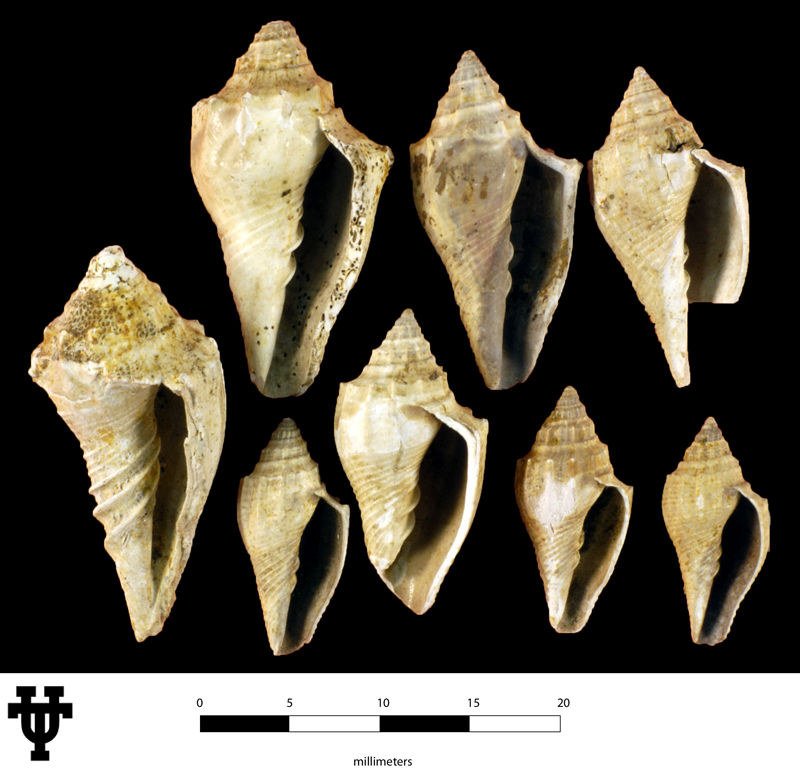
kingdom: Animalia
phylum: Mollusca
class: Gastropoda
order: Neogastropoda
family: Volutidae
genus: Volutilithes
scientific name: Volutilithes
